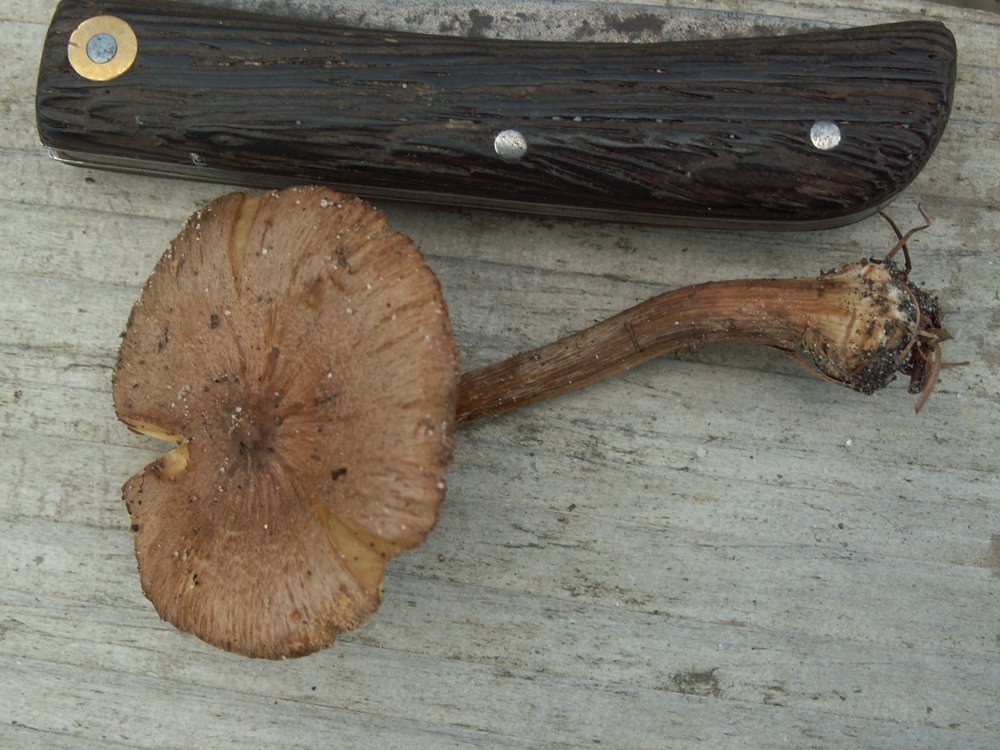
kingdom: Fungi
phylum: Basidiomycota
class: Agaricomycetes
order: Agaricales
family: Inocybaceae
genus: Inocybe
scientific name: Inocybe napipes
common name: roeknoldet trævlhat
